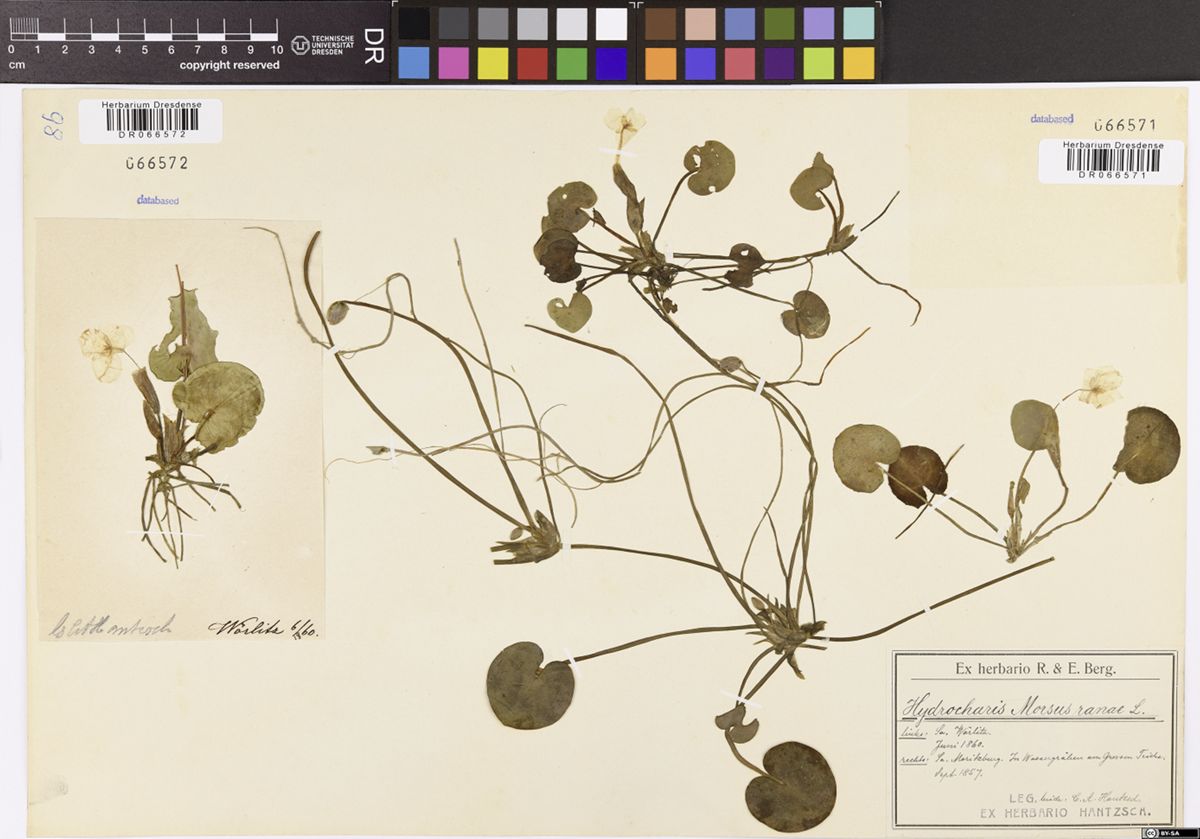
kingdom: Plantae
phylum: Tracheophyta
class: Liliopsida
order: Alismatales
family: Hydrocharitaceae
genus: Hydrocharis
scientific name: Hydrocharis morsus-ranae
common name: Frogbit
